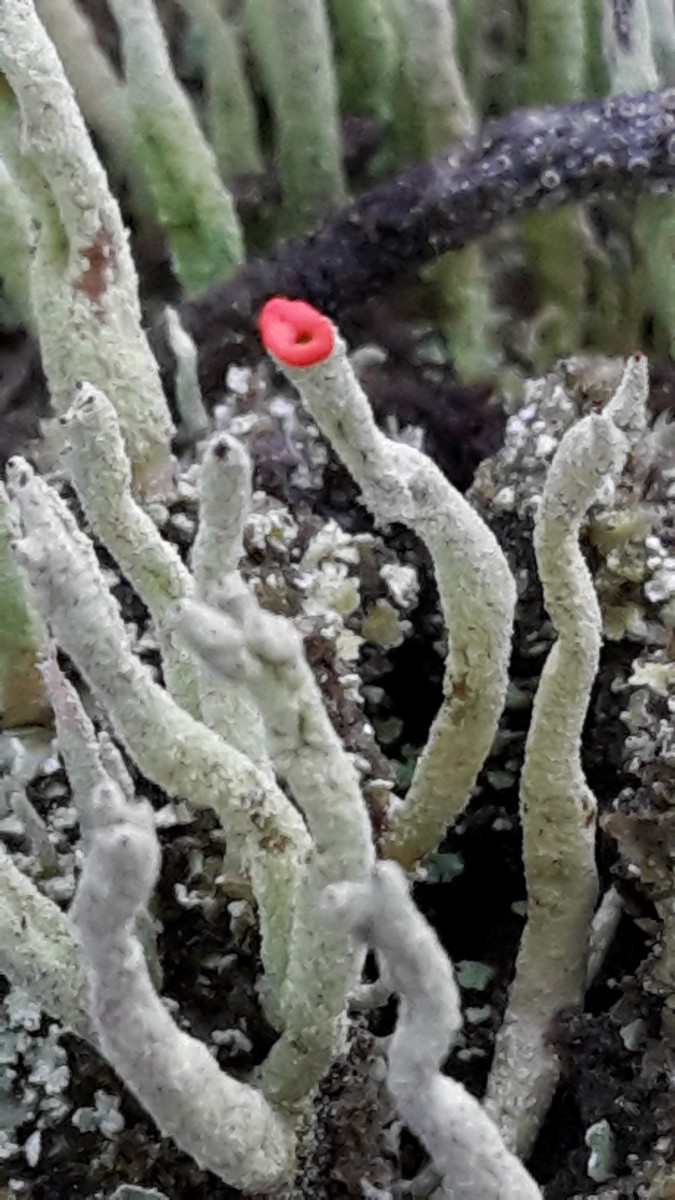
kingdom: Fungi
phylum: Ascomycota
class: Lecanoromycetes
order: Lecanorales
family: Cladoniaceae
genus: Cladonia
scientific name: Cladonia macilenta
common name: indsvunden bægerlav
